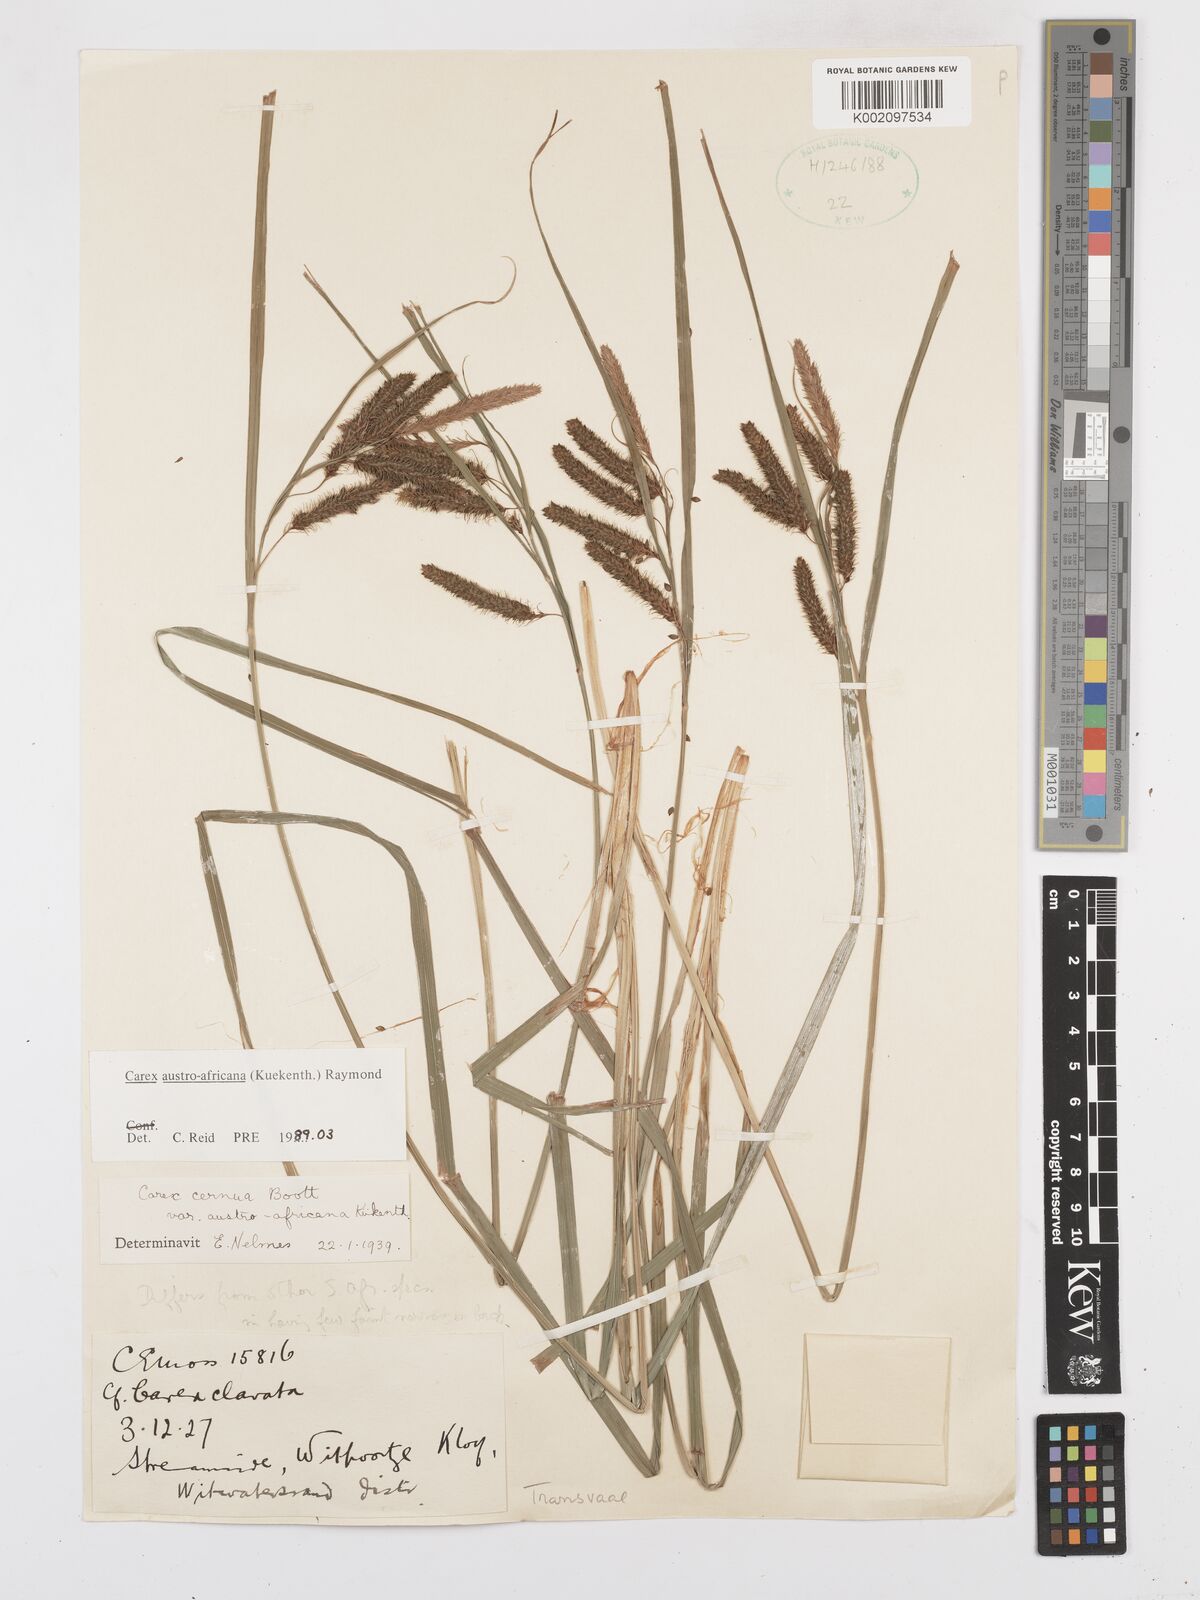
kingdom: Plantae
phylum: Tracheophyta
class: Liliopsida
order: Poales
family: Cyperaceae
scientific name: Cyperaceae
